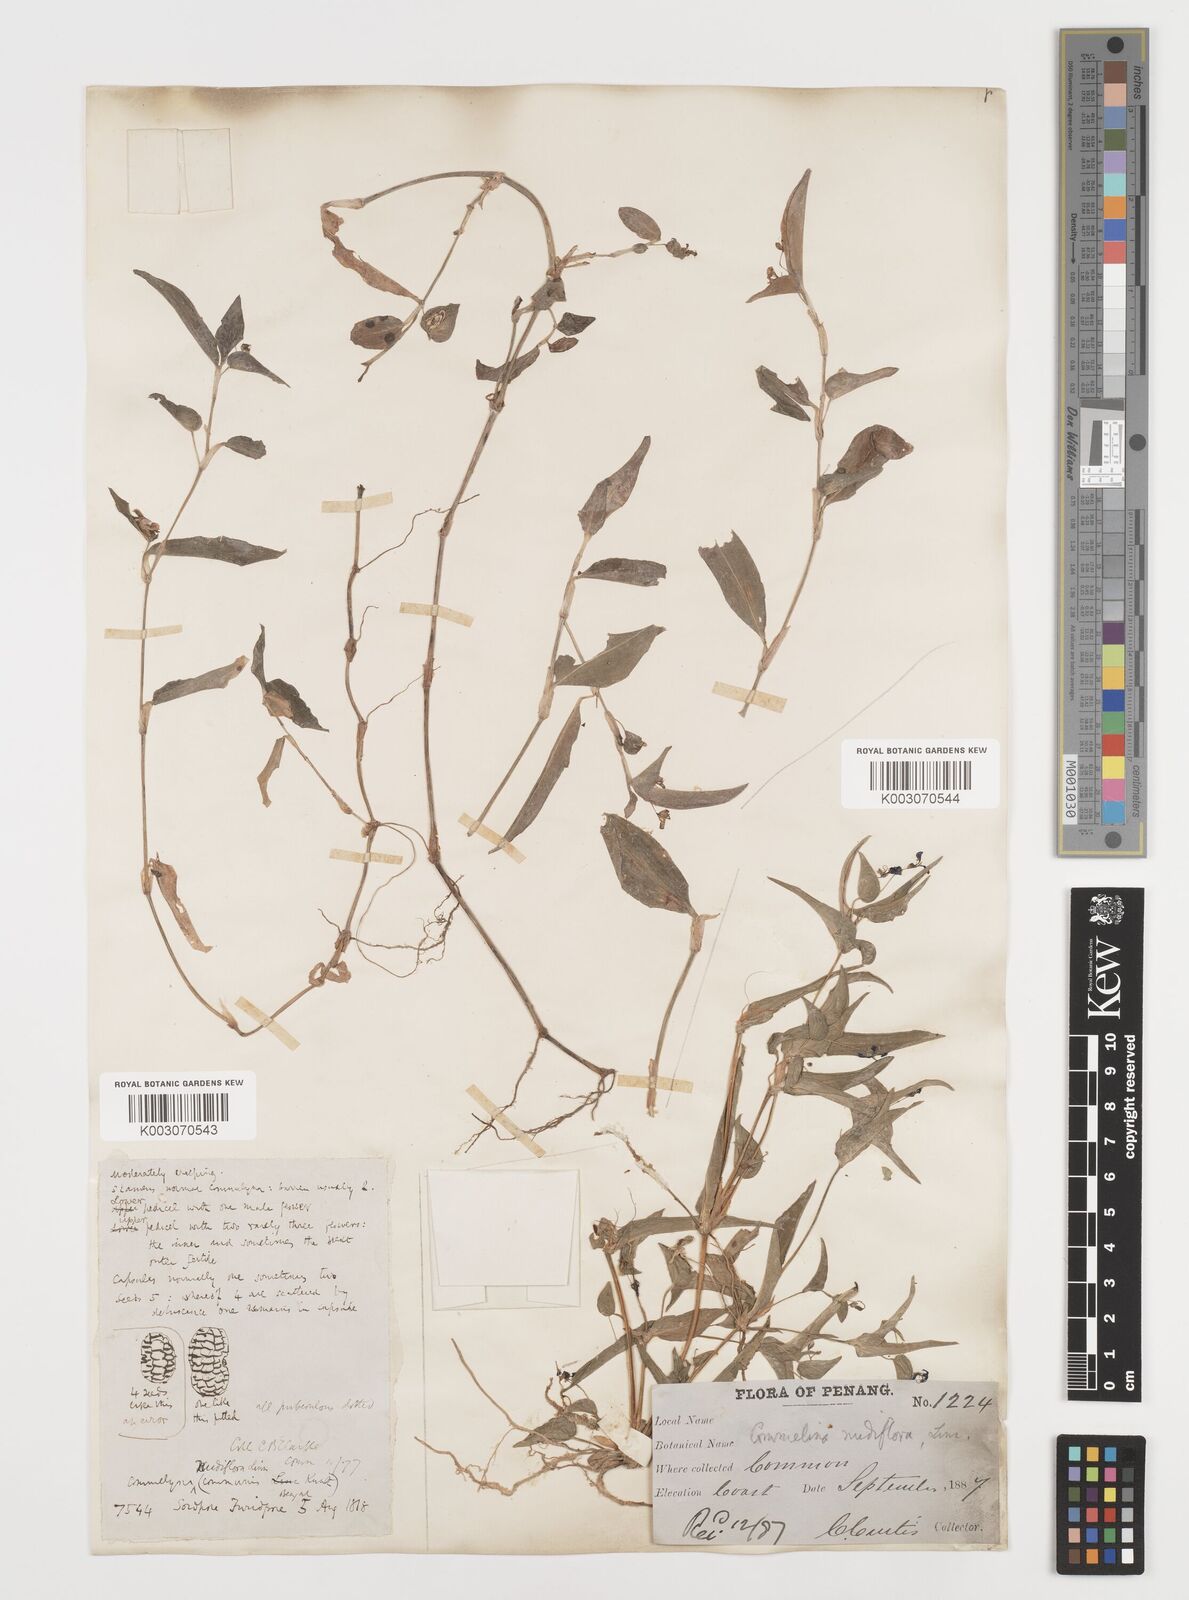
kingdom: Plantae
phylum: Tracheophyta
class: Liliopsida
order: Commelinales
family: Commelinaceae
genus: Commelina
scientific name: Commelina clavata
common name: Willow leaved dayflower
